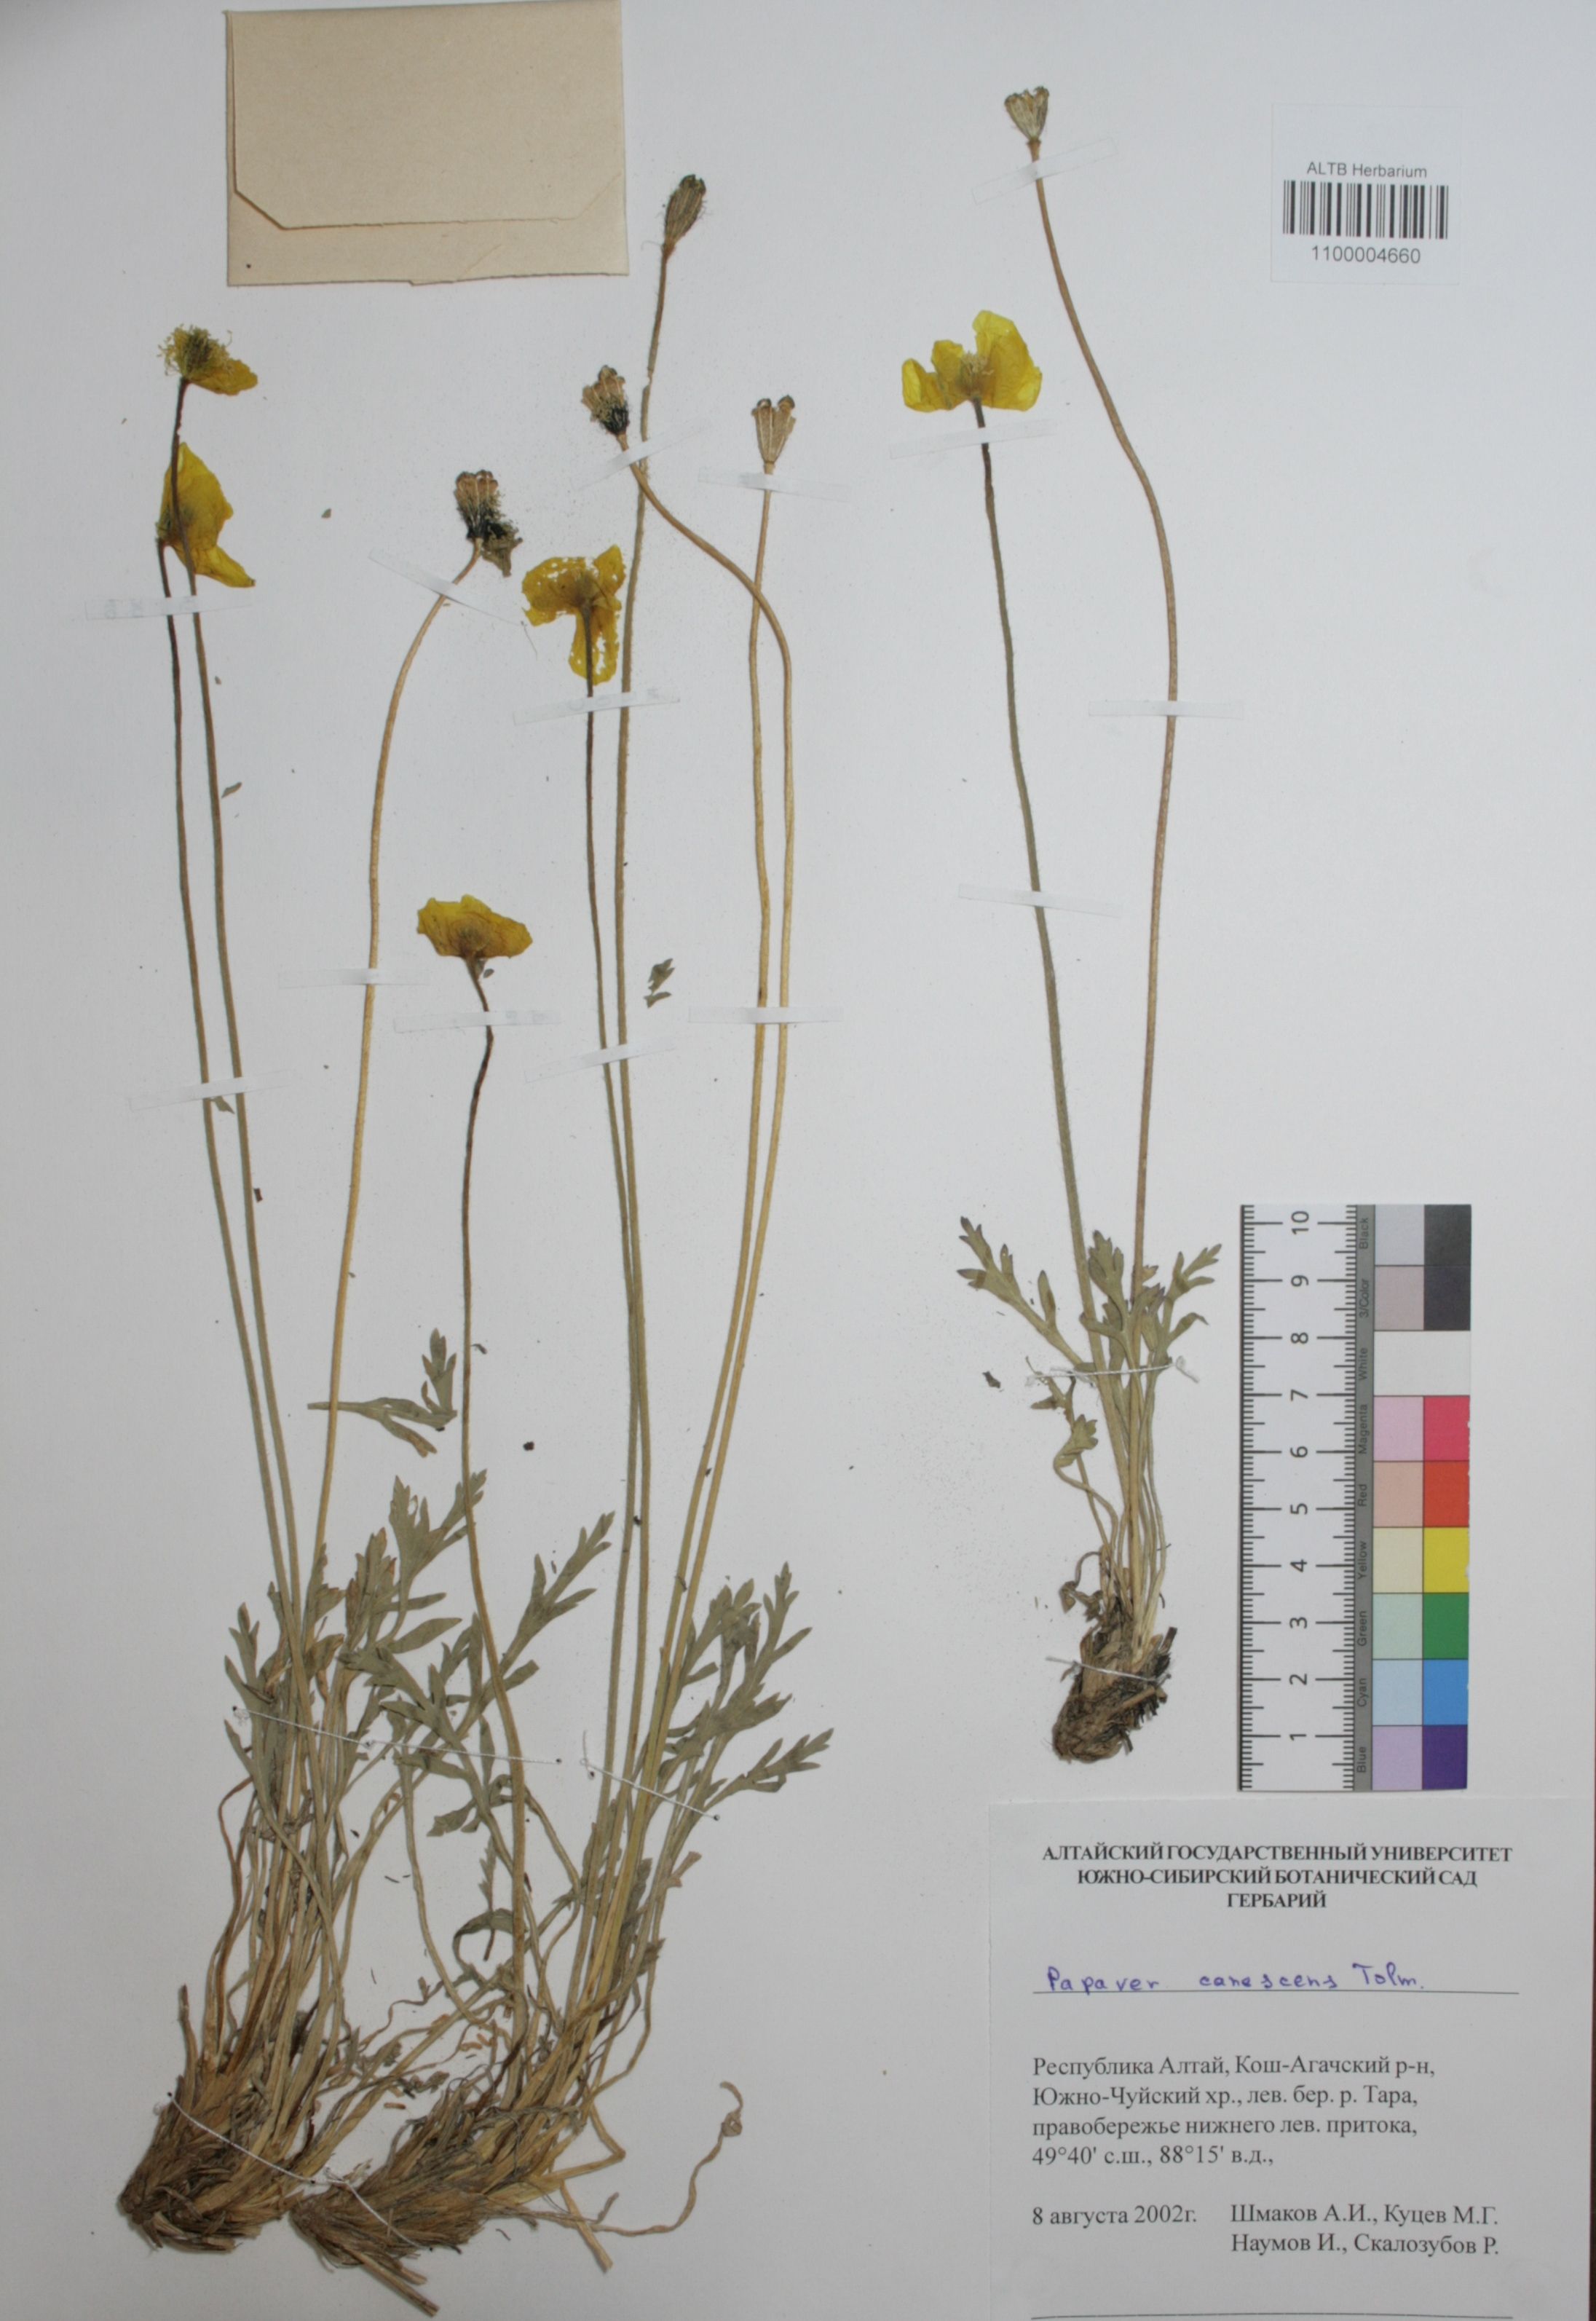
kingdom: Plantae
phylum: Tracheophyta
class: Magnoliopsida
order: Ranunculales
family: Papaveraceae
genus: Papaver
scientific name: Papaver canescens
